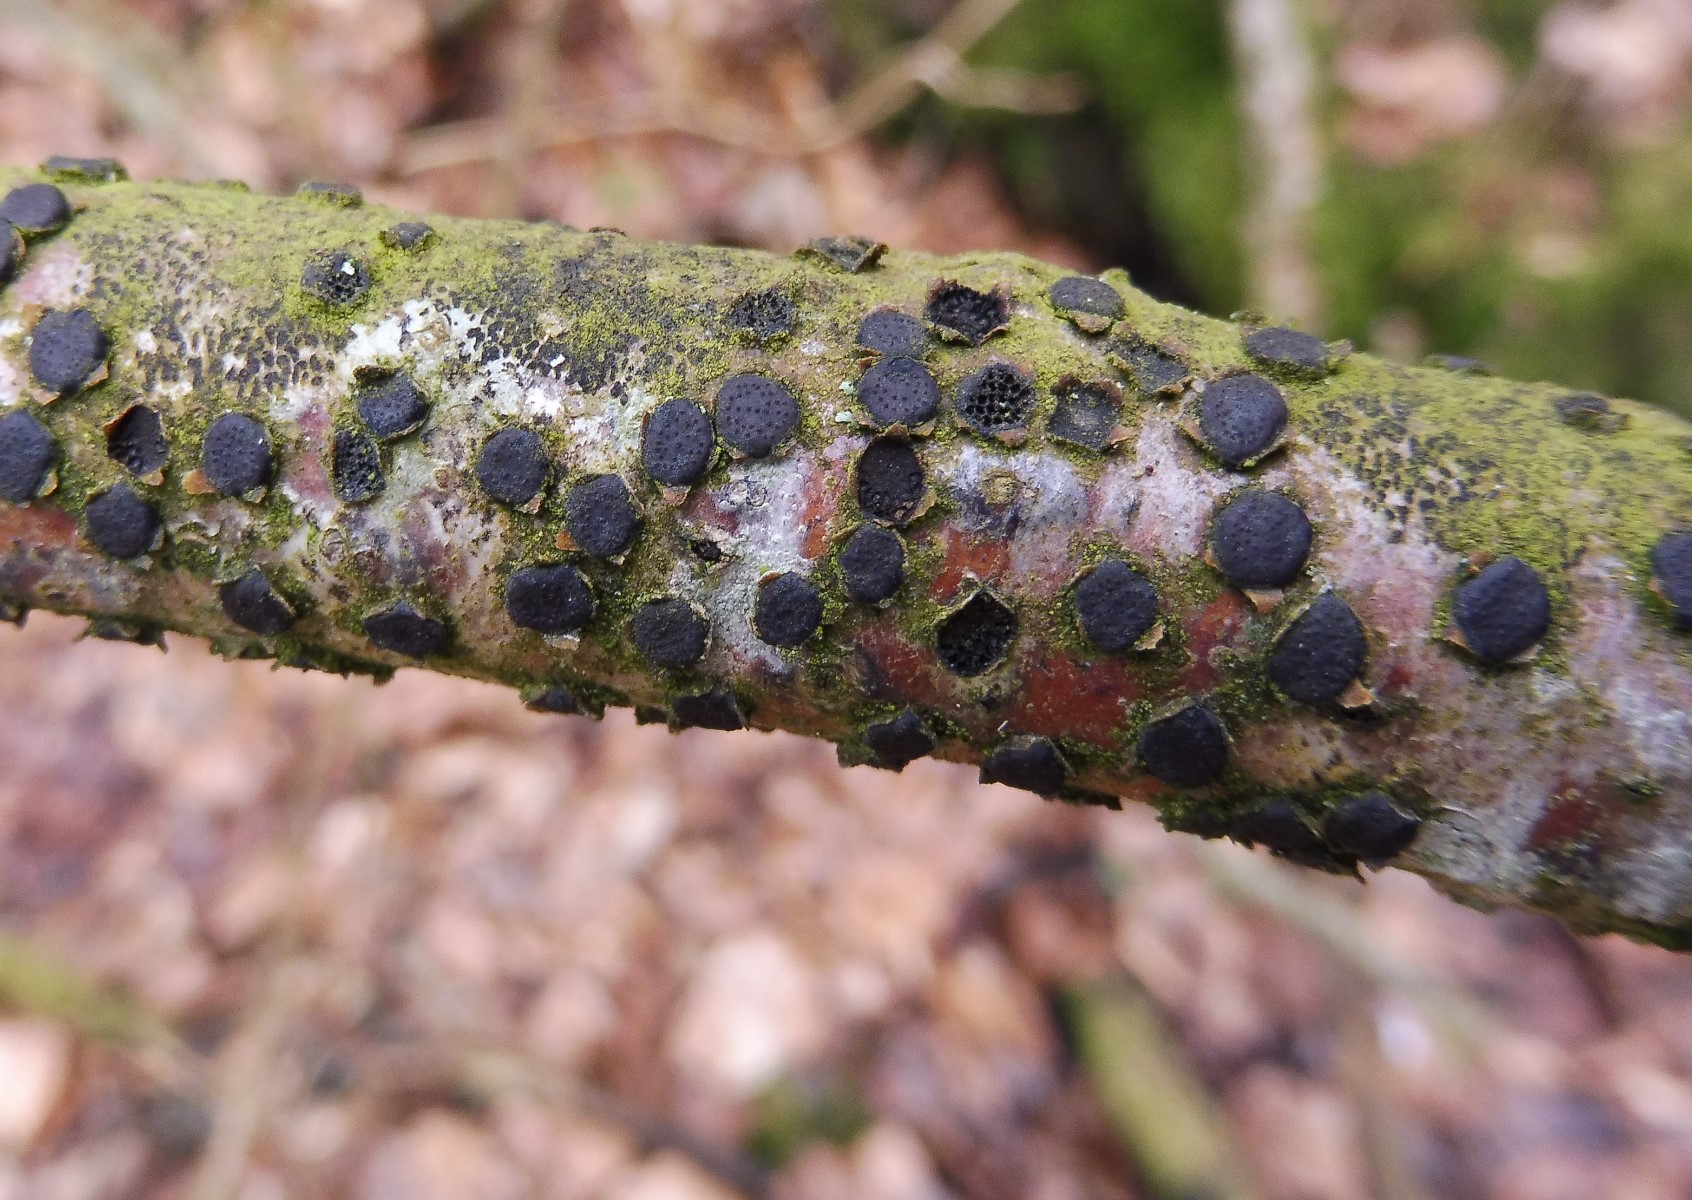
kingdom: Fungi
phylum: Ascomycota
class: Sordariomycetes
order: Xylariales
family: Diatrypaceae
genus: Diatrype
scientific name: Diatrype disciformis
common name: kant-kulskorpe
